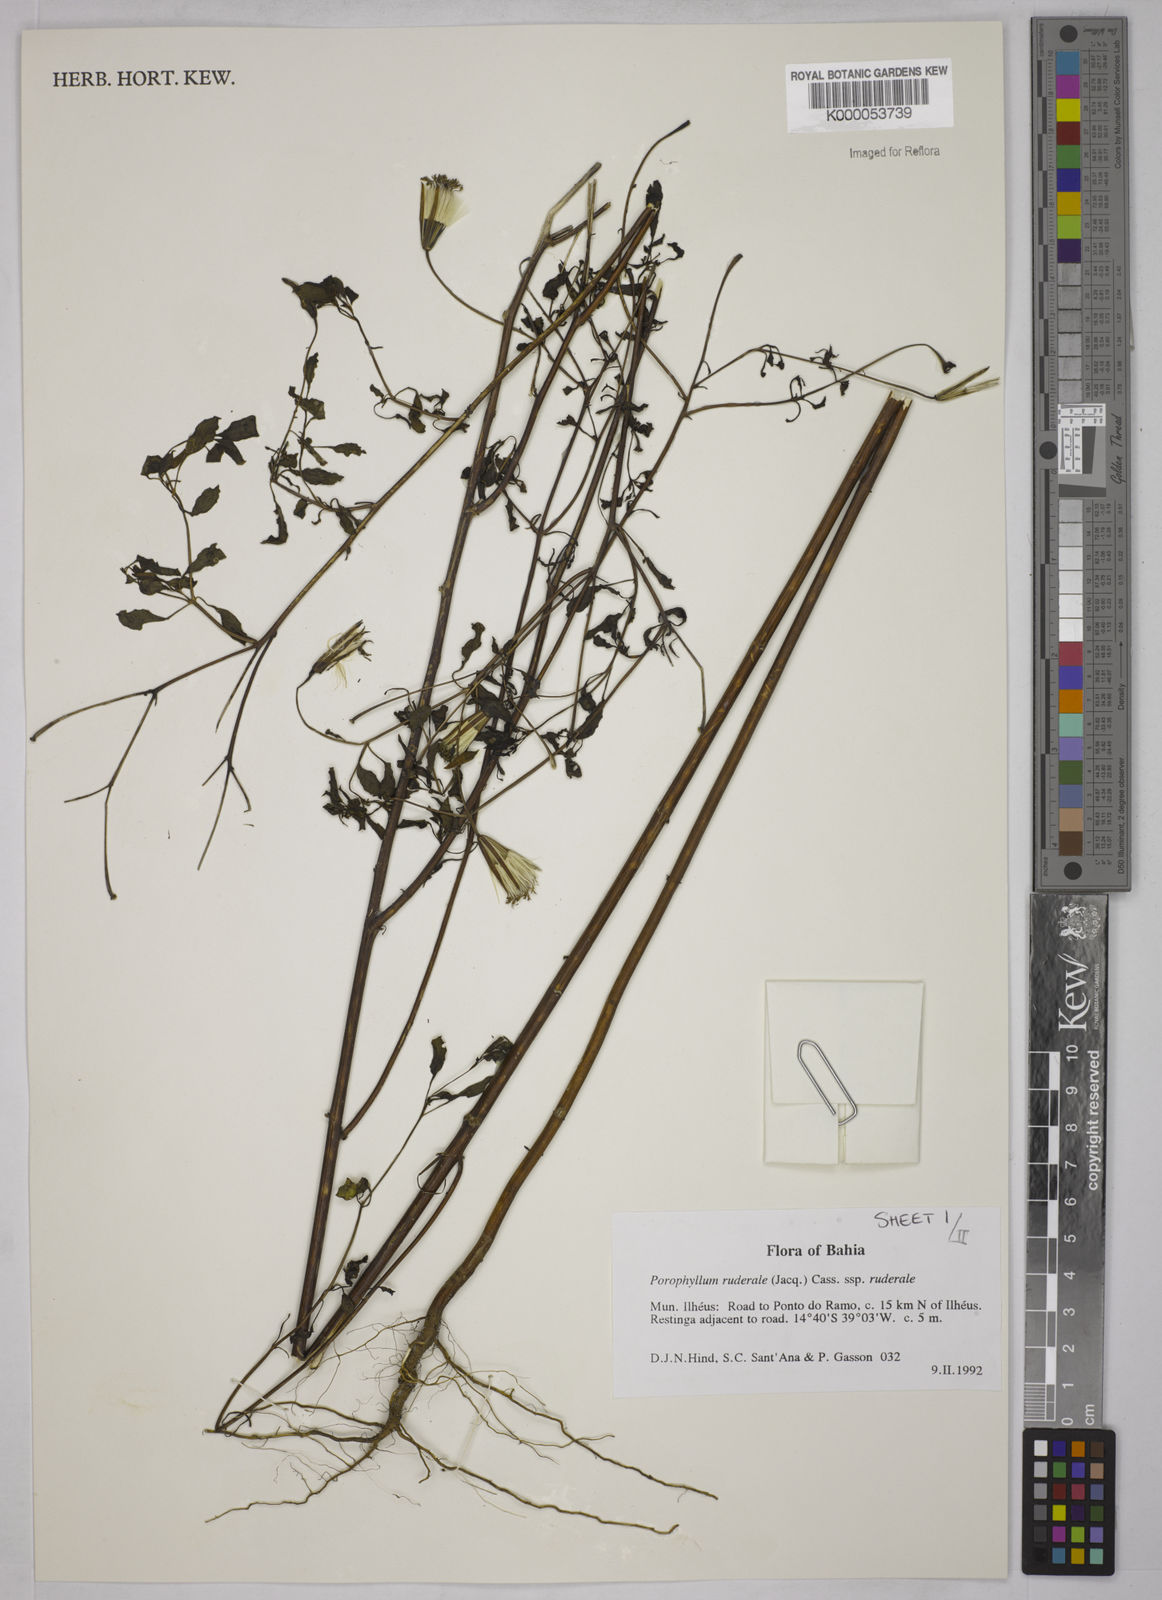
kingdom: Plantae
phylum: Tracheophyta
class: Magnoliopsida
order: Asterales
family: Asteraceae
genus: Porophyllum
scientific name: Porophyllum ruderale
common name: Yerba porosa
